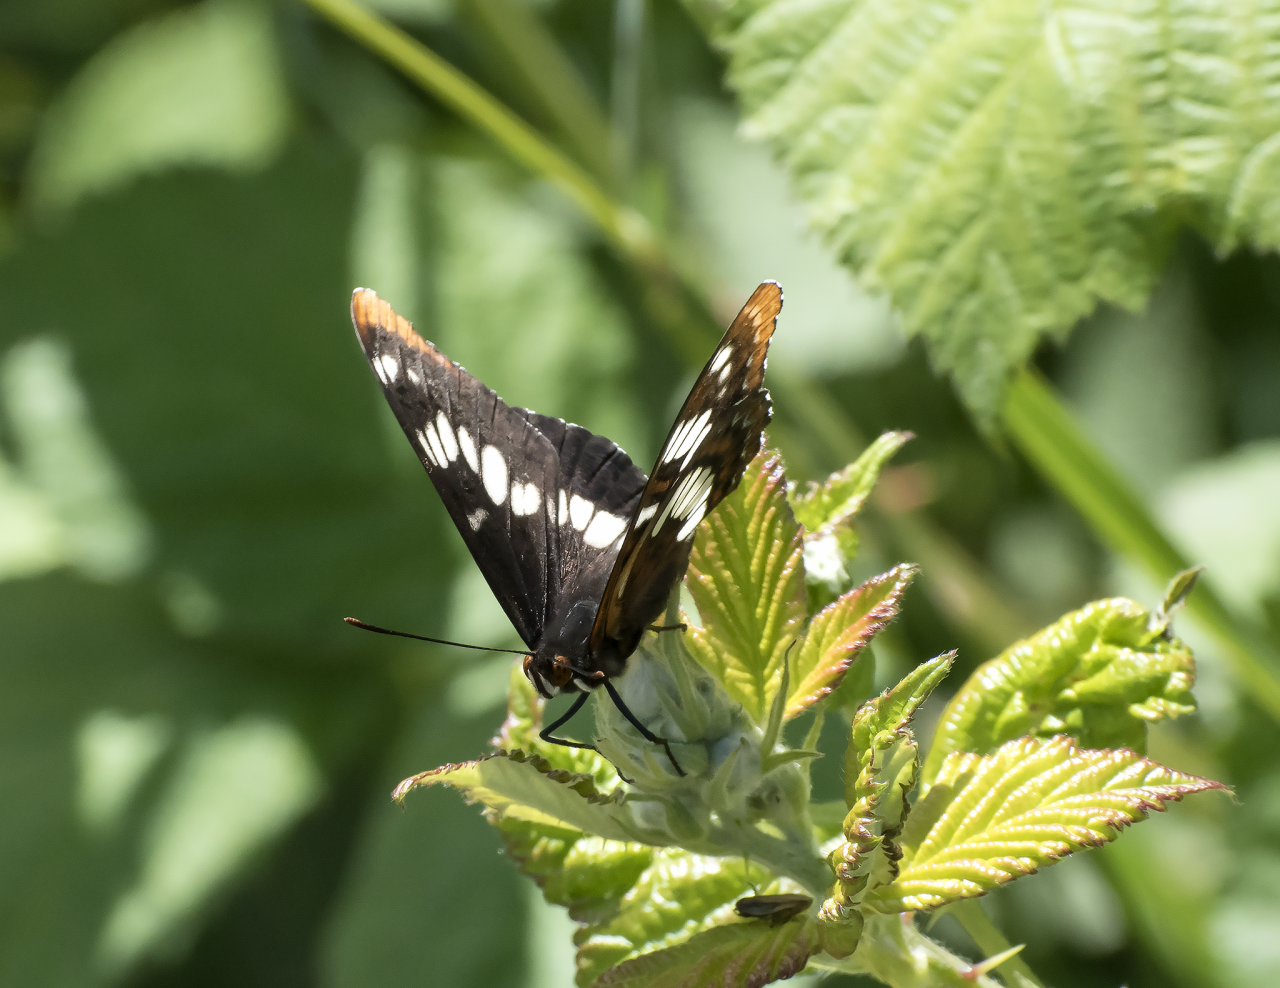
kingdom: Animalia
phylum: Arthropoda
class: Insecta
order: Lepidoptera
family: Nymphalidae
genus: Limenitis
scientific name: Limenitis lorquini
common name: Lorquin's Admiral
